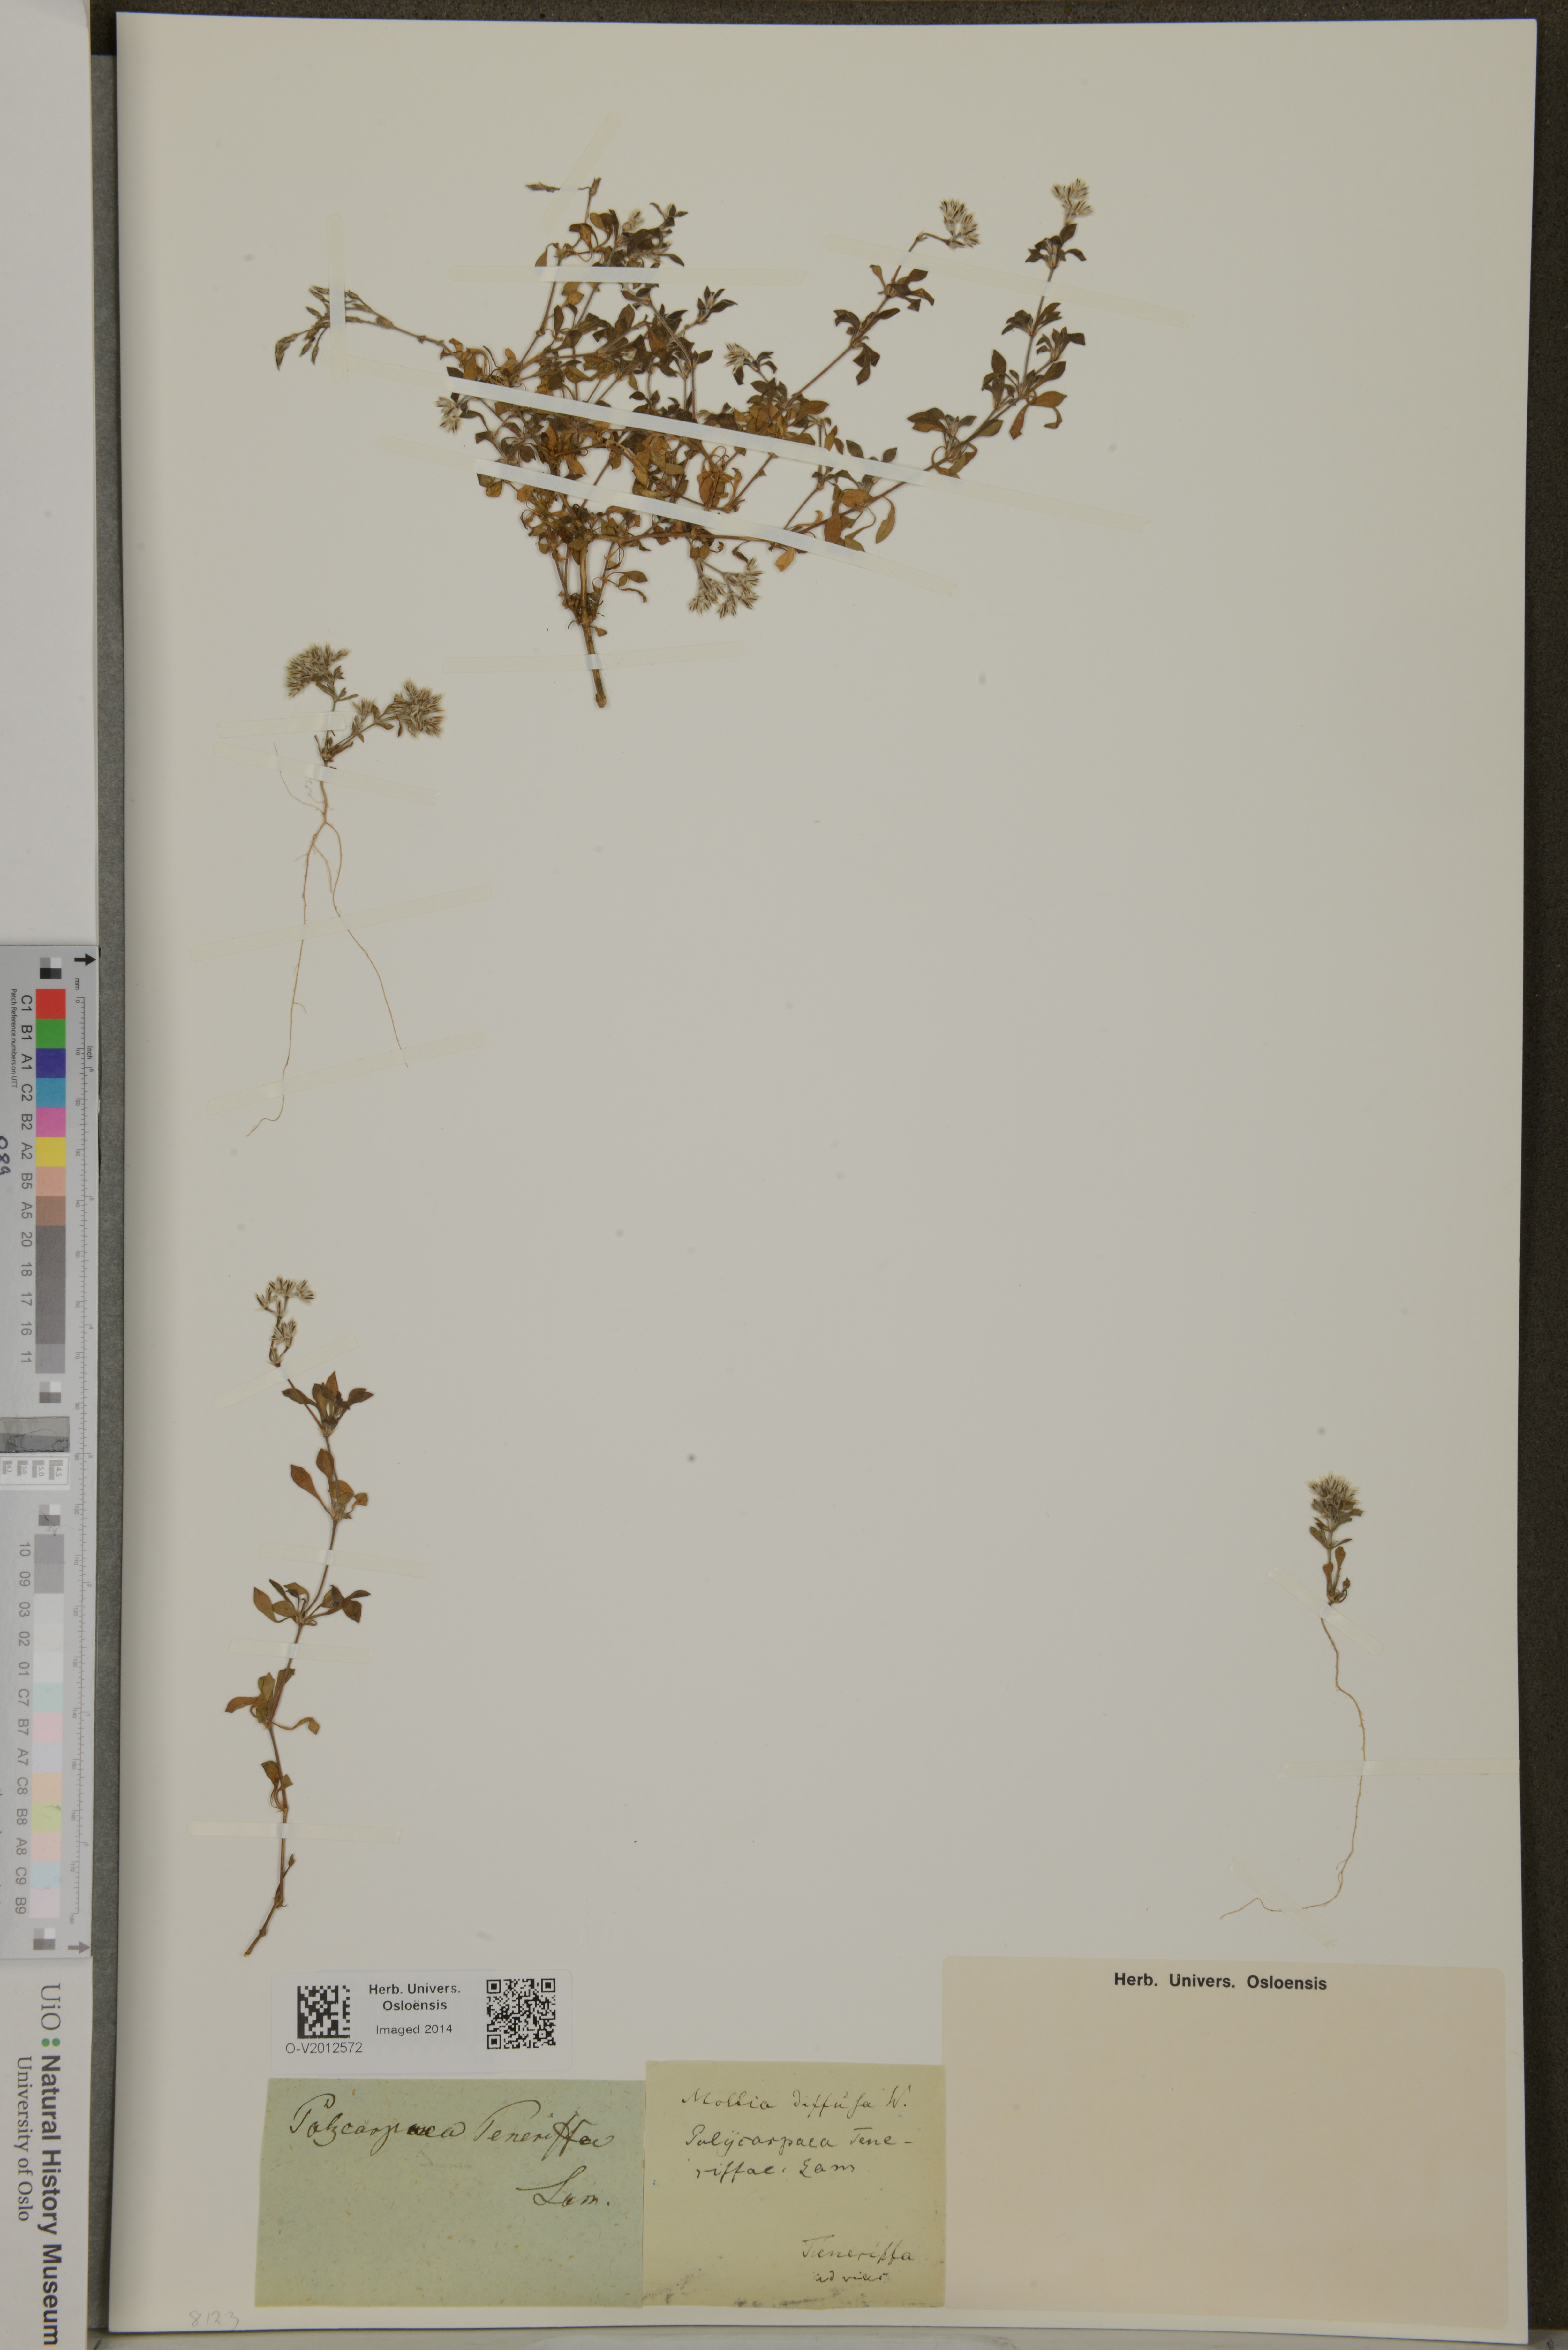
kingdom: Plantae
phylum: Tracheophyta
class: Magnoliopsida
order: Caryophyllales
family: Caryophyllaceae
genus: Polycarpaea
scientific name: Polycarpaea divaricata
